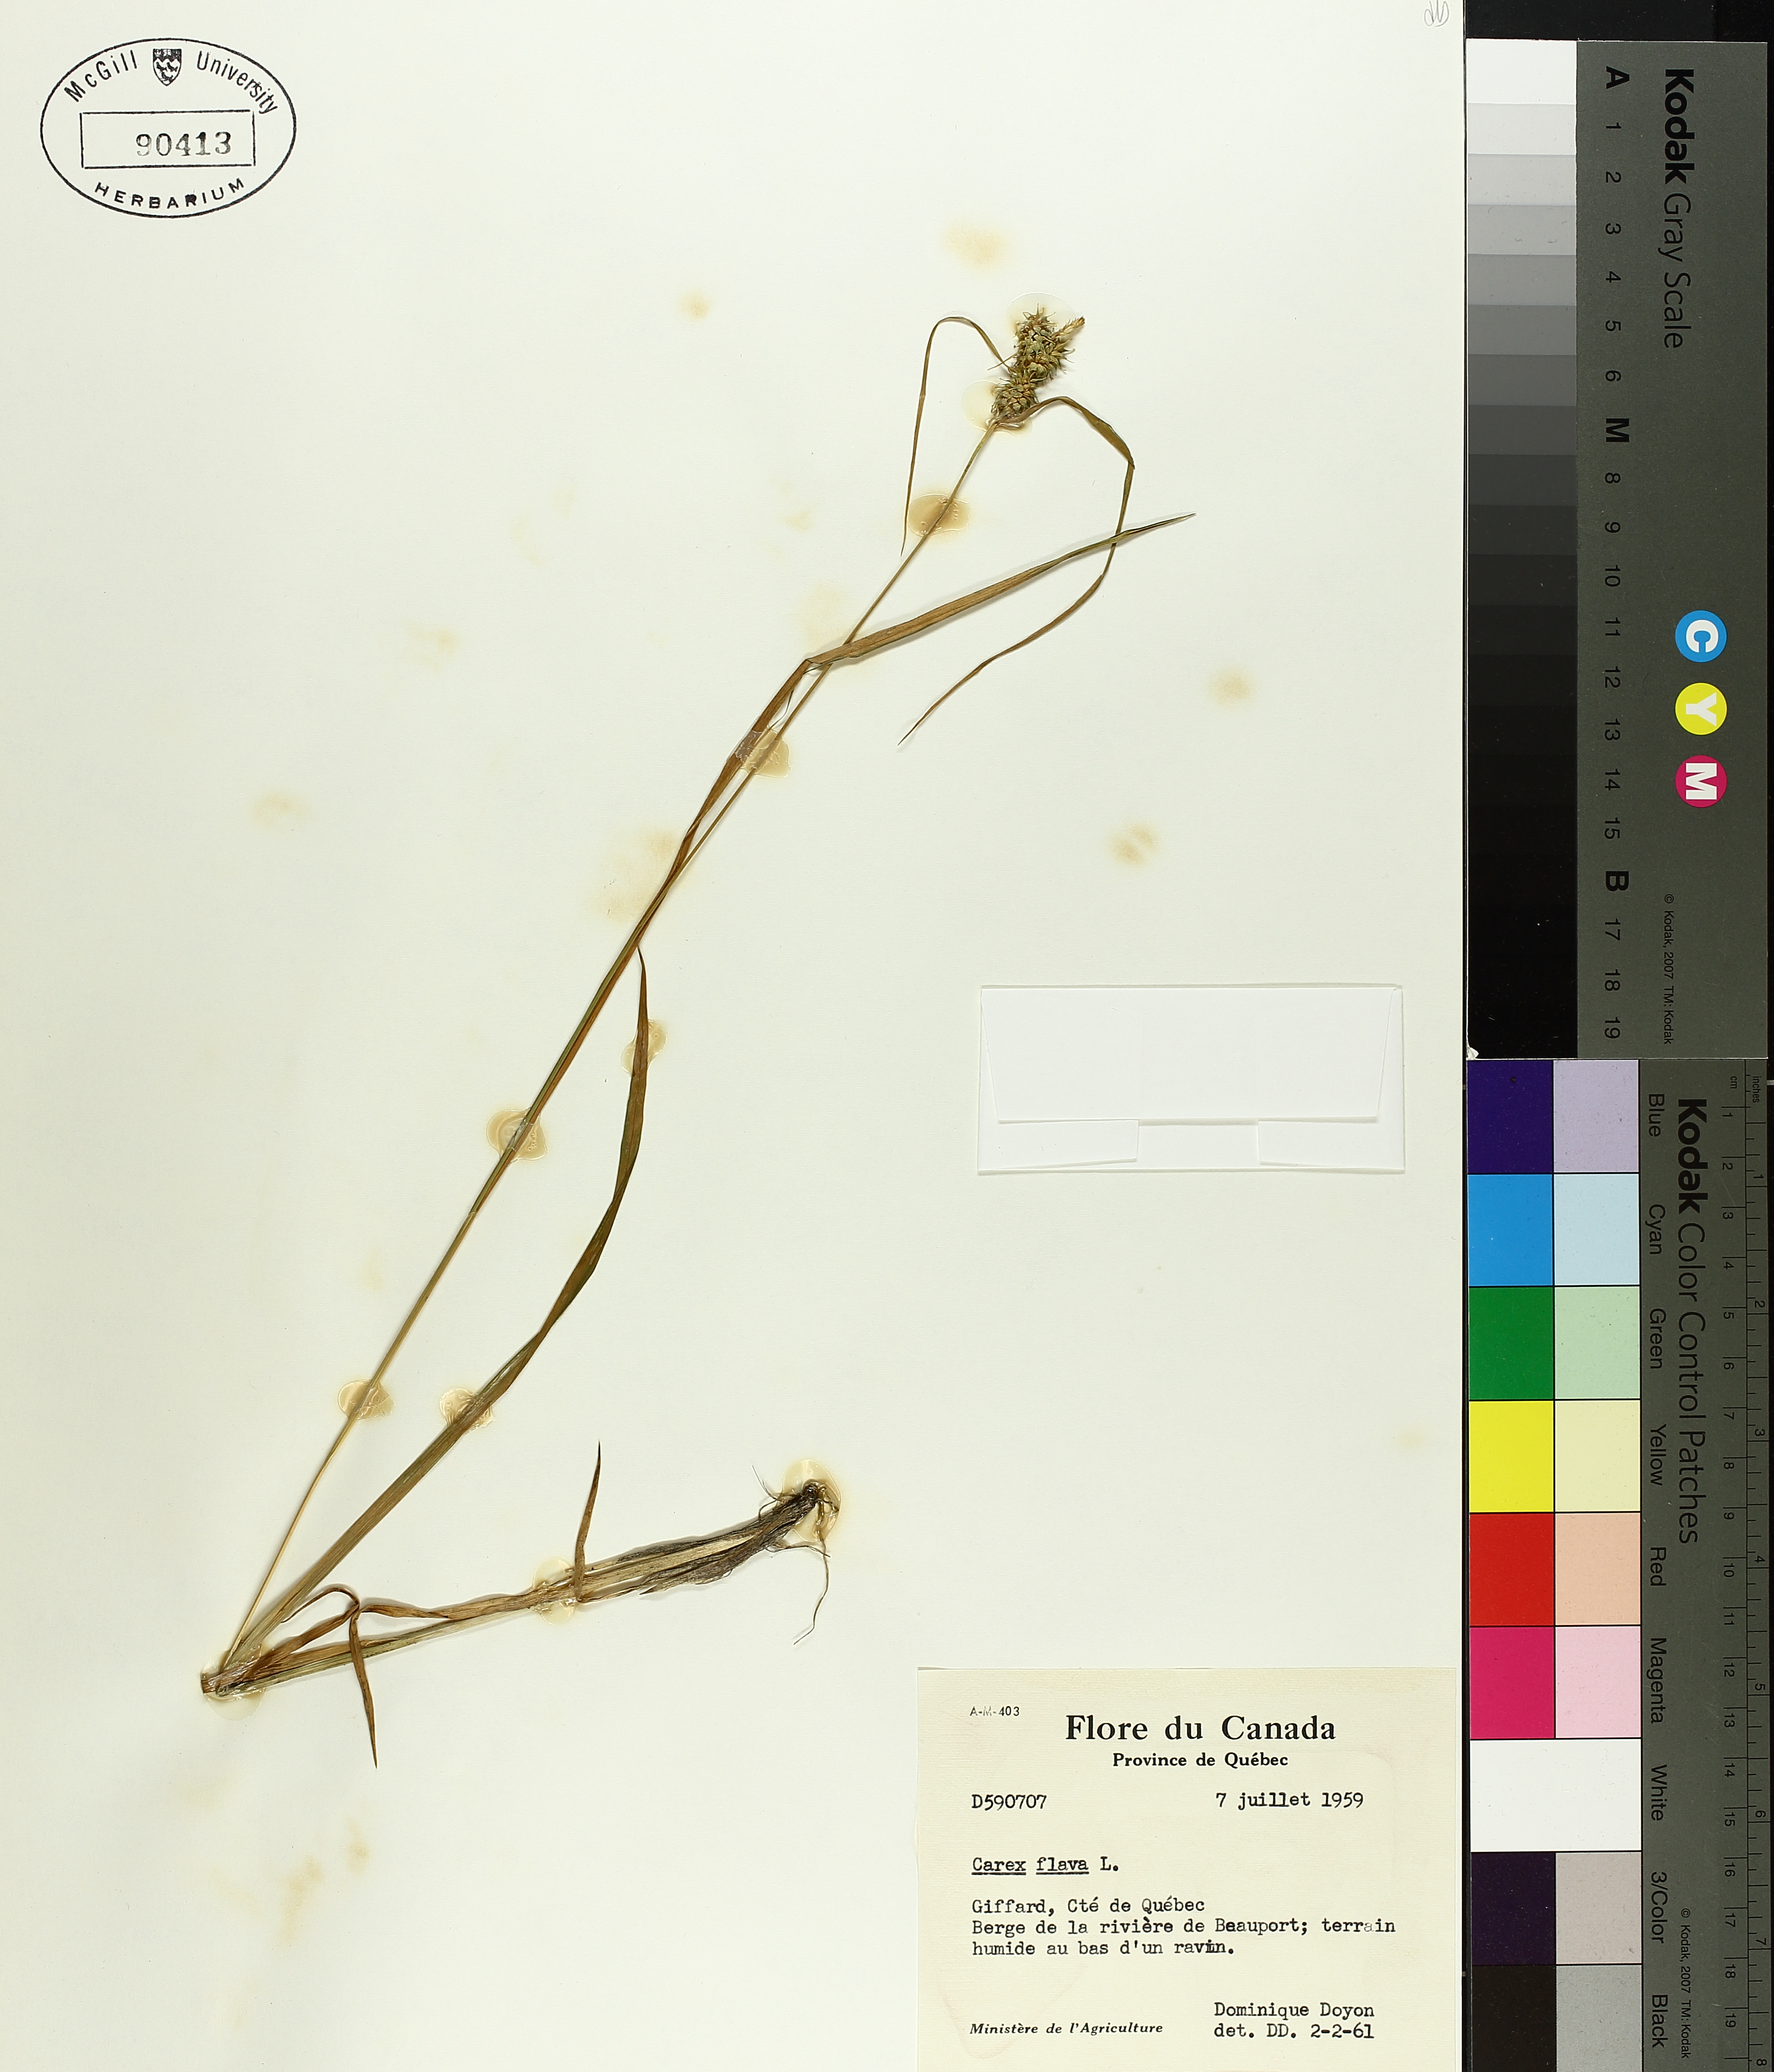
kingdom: Plantae
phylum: Tracheophyta
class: Liliopsida
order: Poales
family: Cyperaceae
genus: Carex
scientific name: Carex flava
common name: Large yellow-sedge
